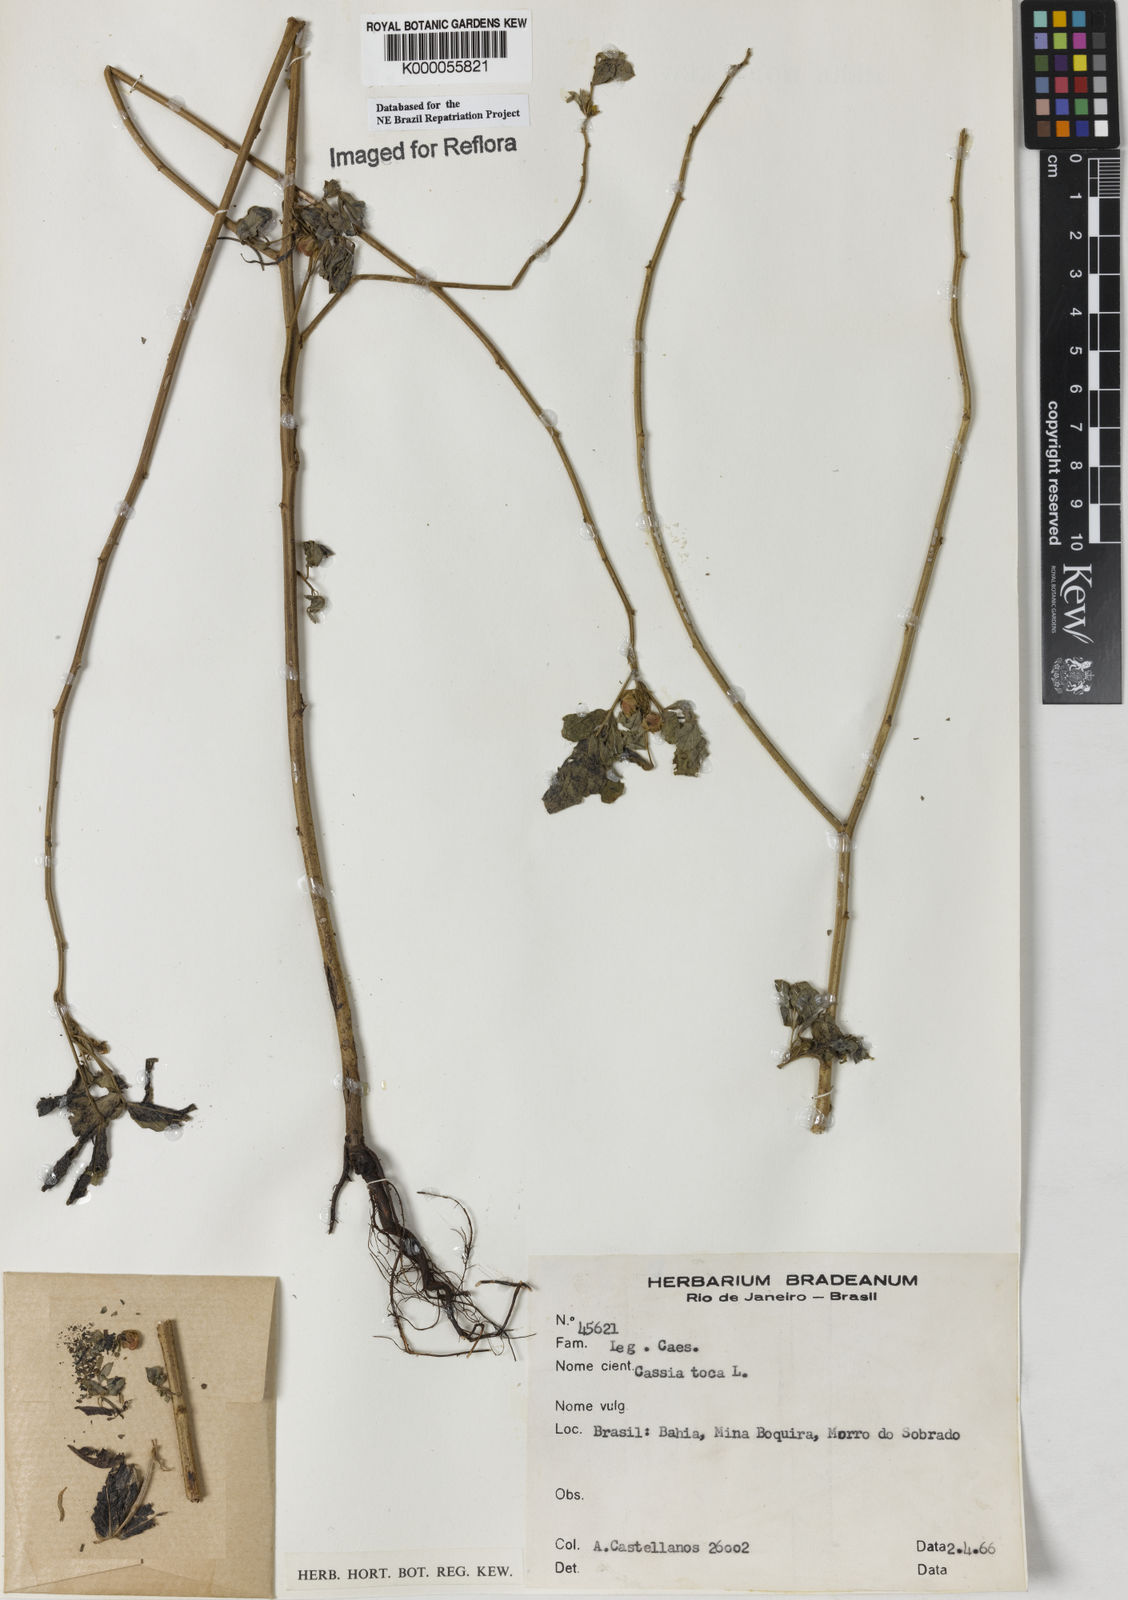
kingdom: Plantae
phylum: Tracheophyta
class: Magnoliopsida
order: Fabales
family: Fabaceae
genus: Senna
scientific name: Senna obtusifolia
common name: Java-bean
